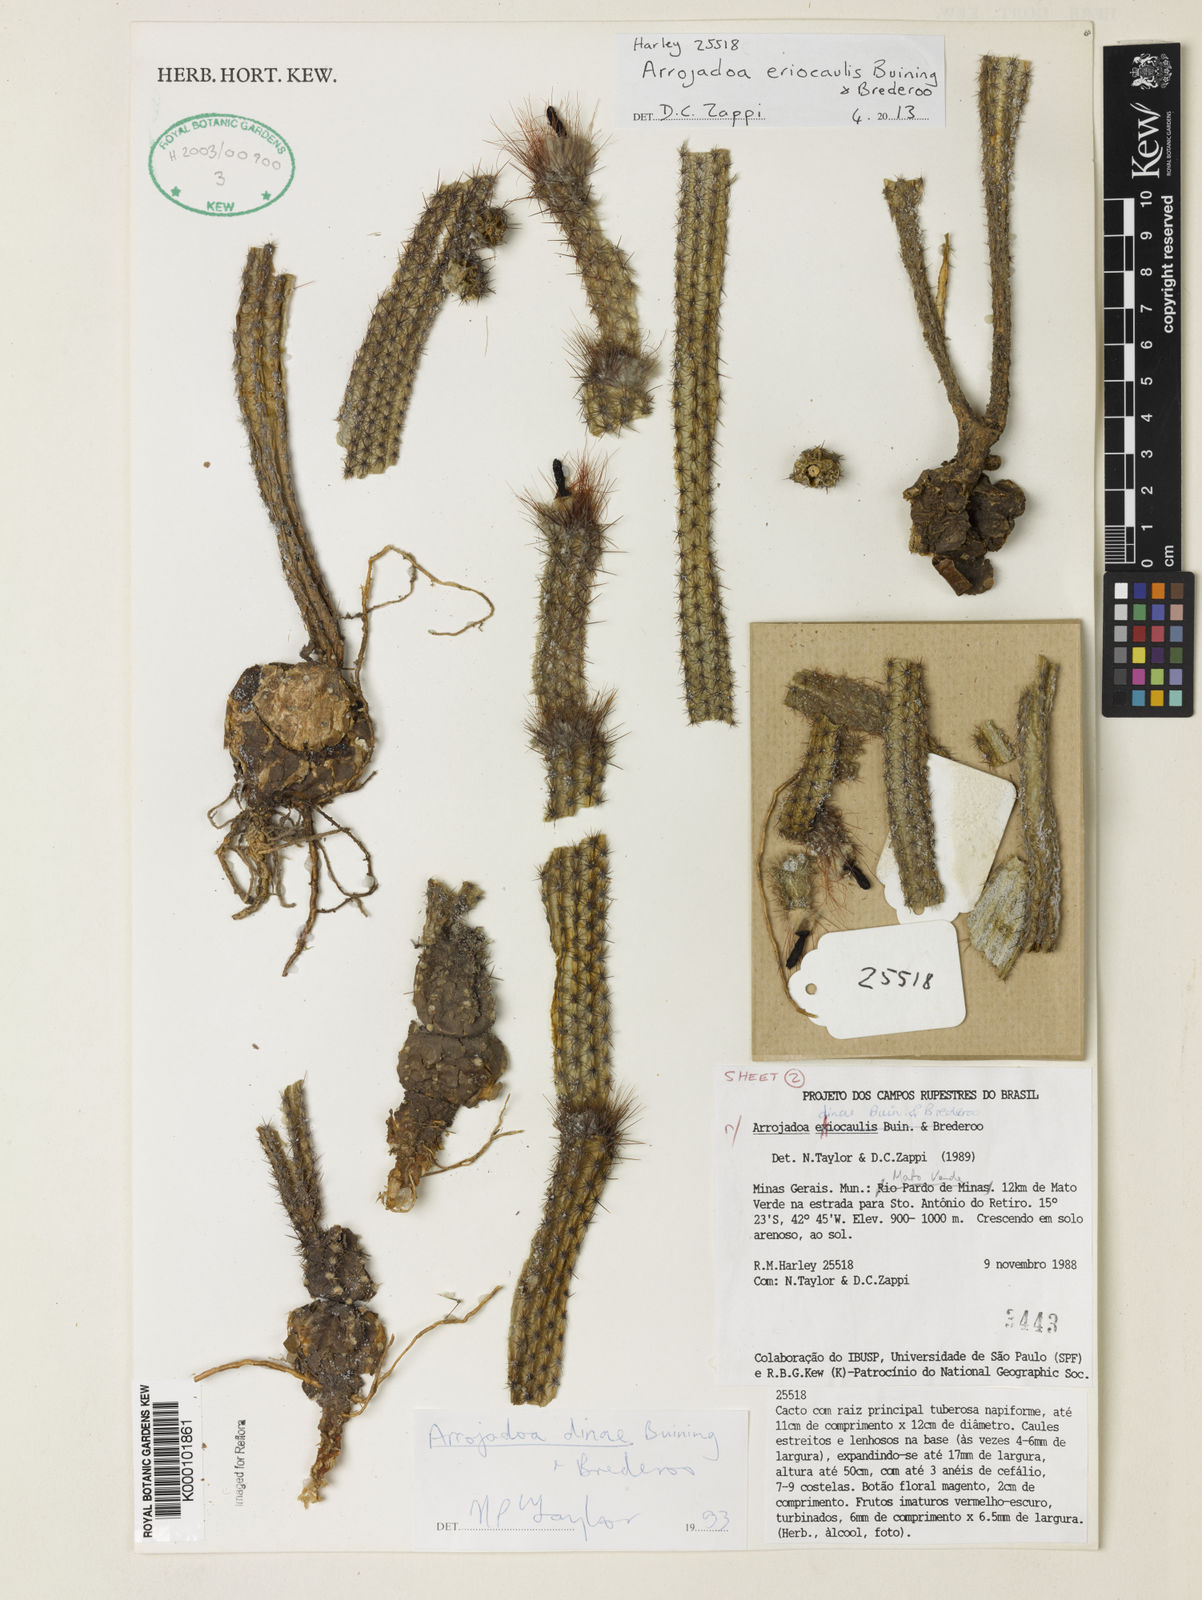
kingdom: Plantae
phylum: Tracheophyta
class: Magnoliopsida
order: Caryophyllales
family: Cactaceae
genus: Arrojadoa
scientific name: Arrojadoa eriocaulis
